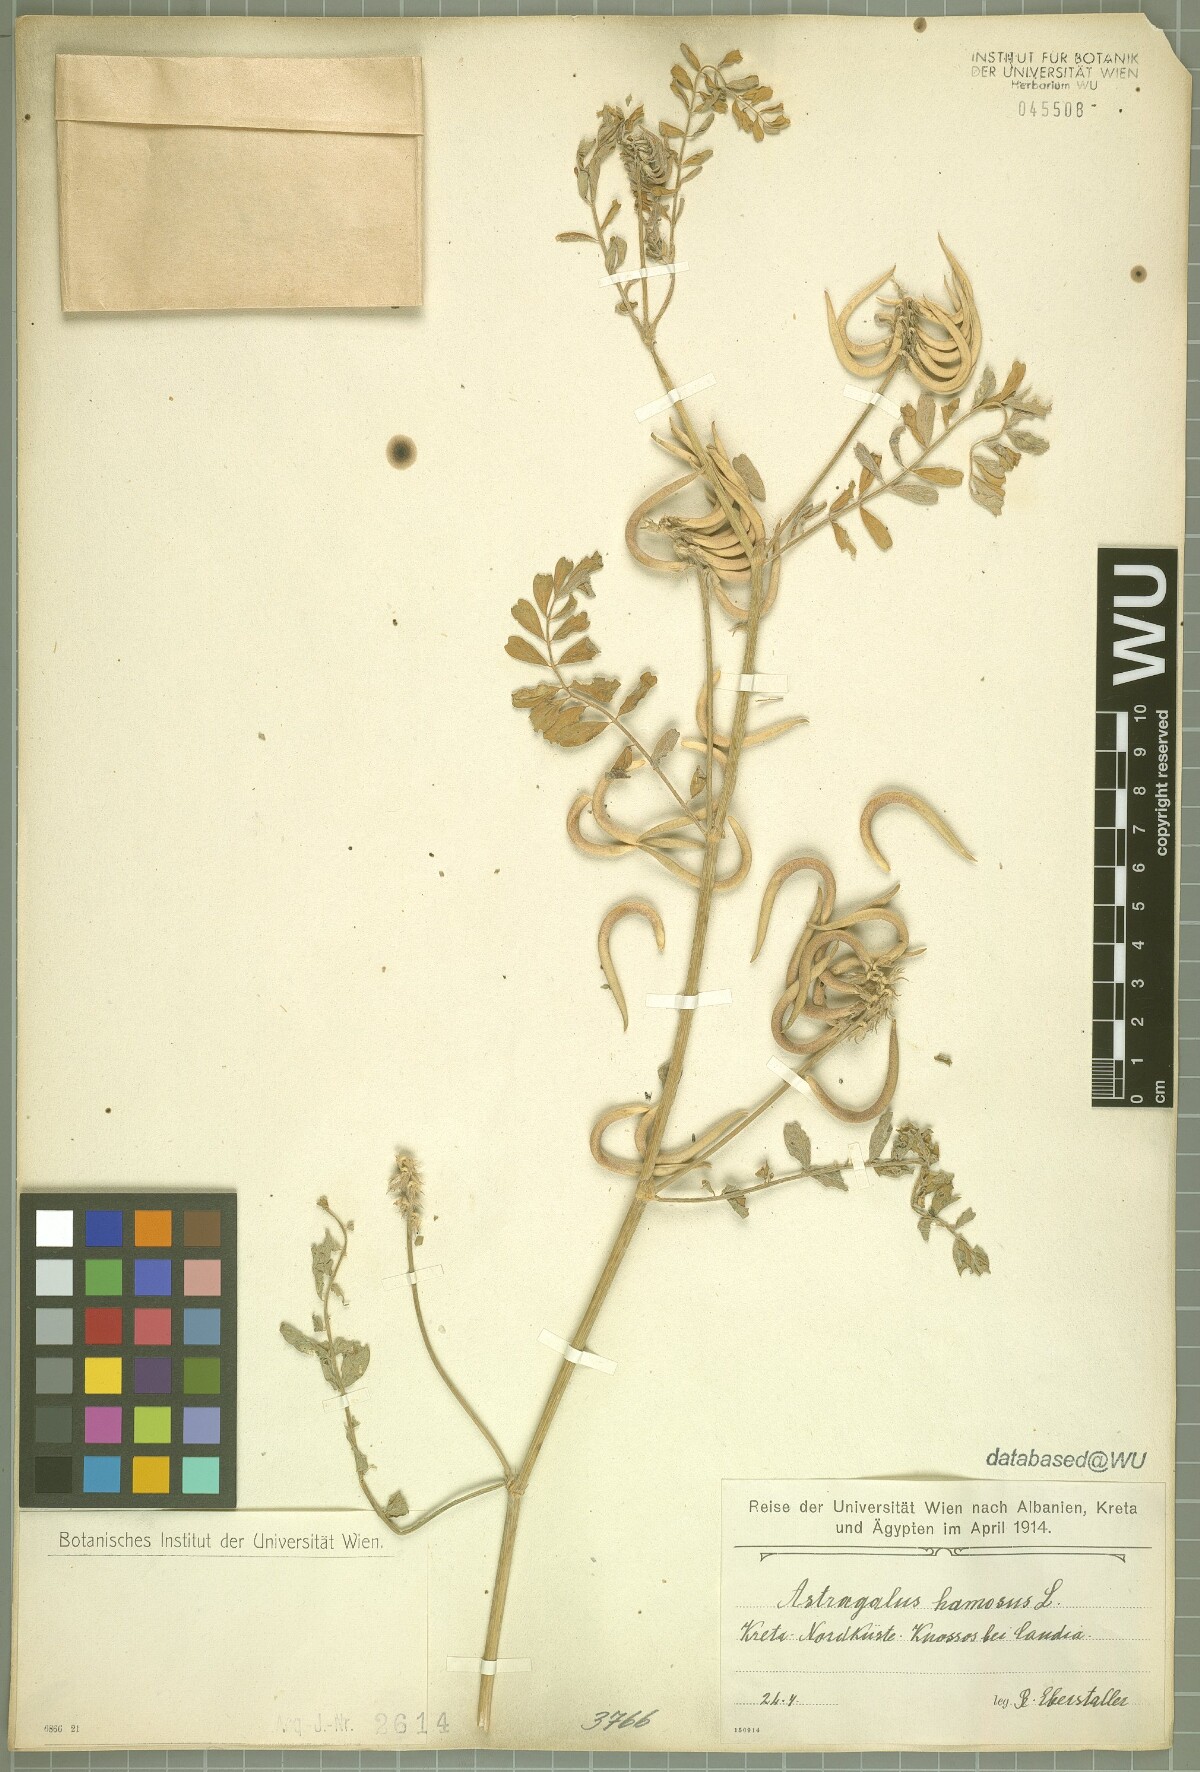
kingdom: Plantae
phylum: Tracheophyta
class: Magnoliopsida
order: Fabales
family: Fabaceae
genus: Astragalus
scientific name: Astragalus hamosus
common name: European milkvetch
